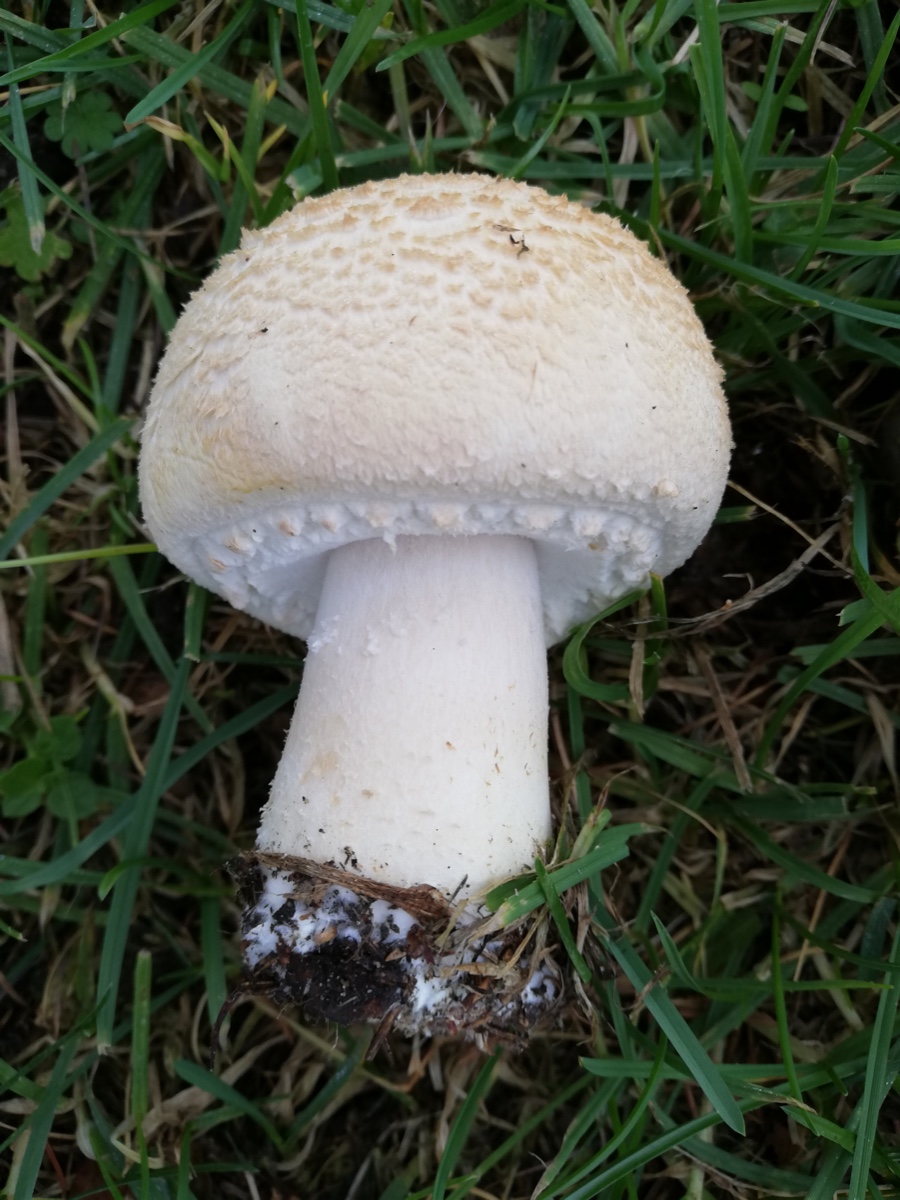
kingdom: Fungi
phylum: Basidiomycota
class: Agaricomycetes
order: Agaricales
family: Agaricaceae
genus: Agaricus
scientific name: Agaricus
